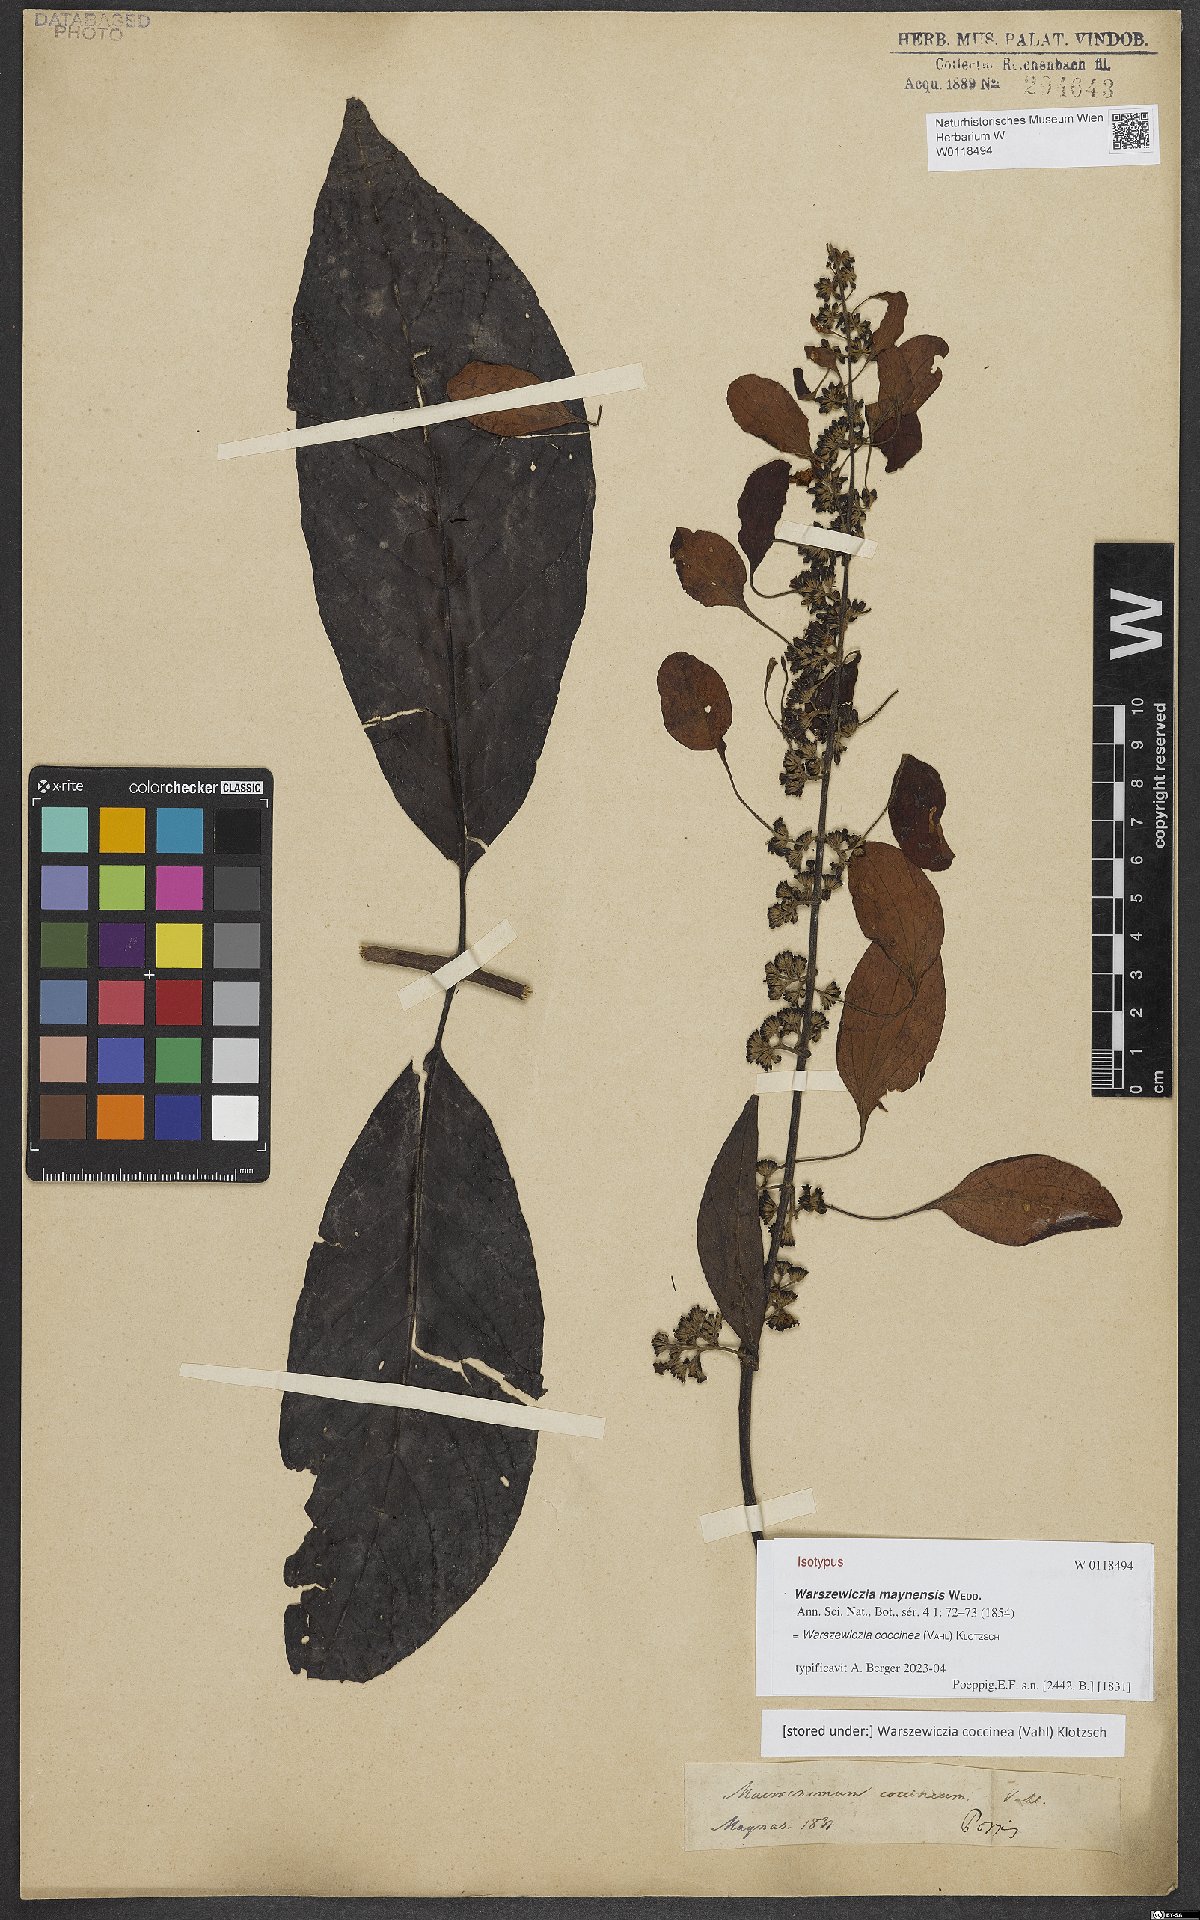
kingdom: Plantae
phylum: Tracheophyta
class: Magnoliopsida
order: Gentianales
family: Rubiaceae
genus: Warszewiczia
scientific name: Warszewiczia coccinea
